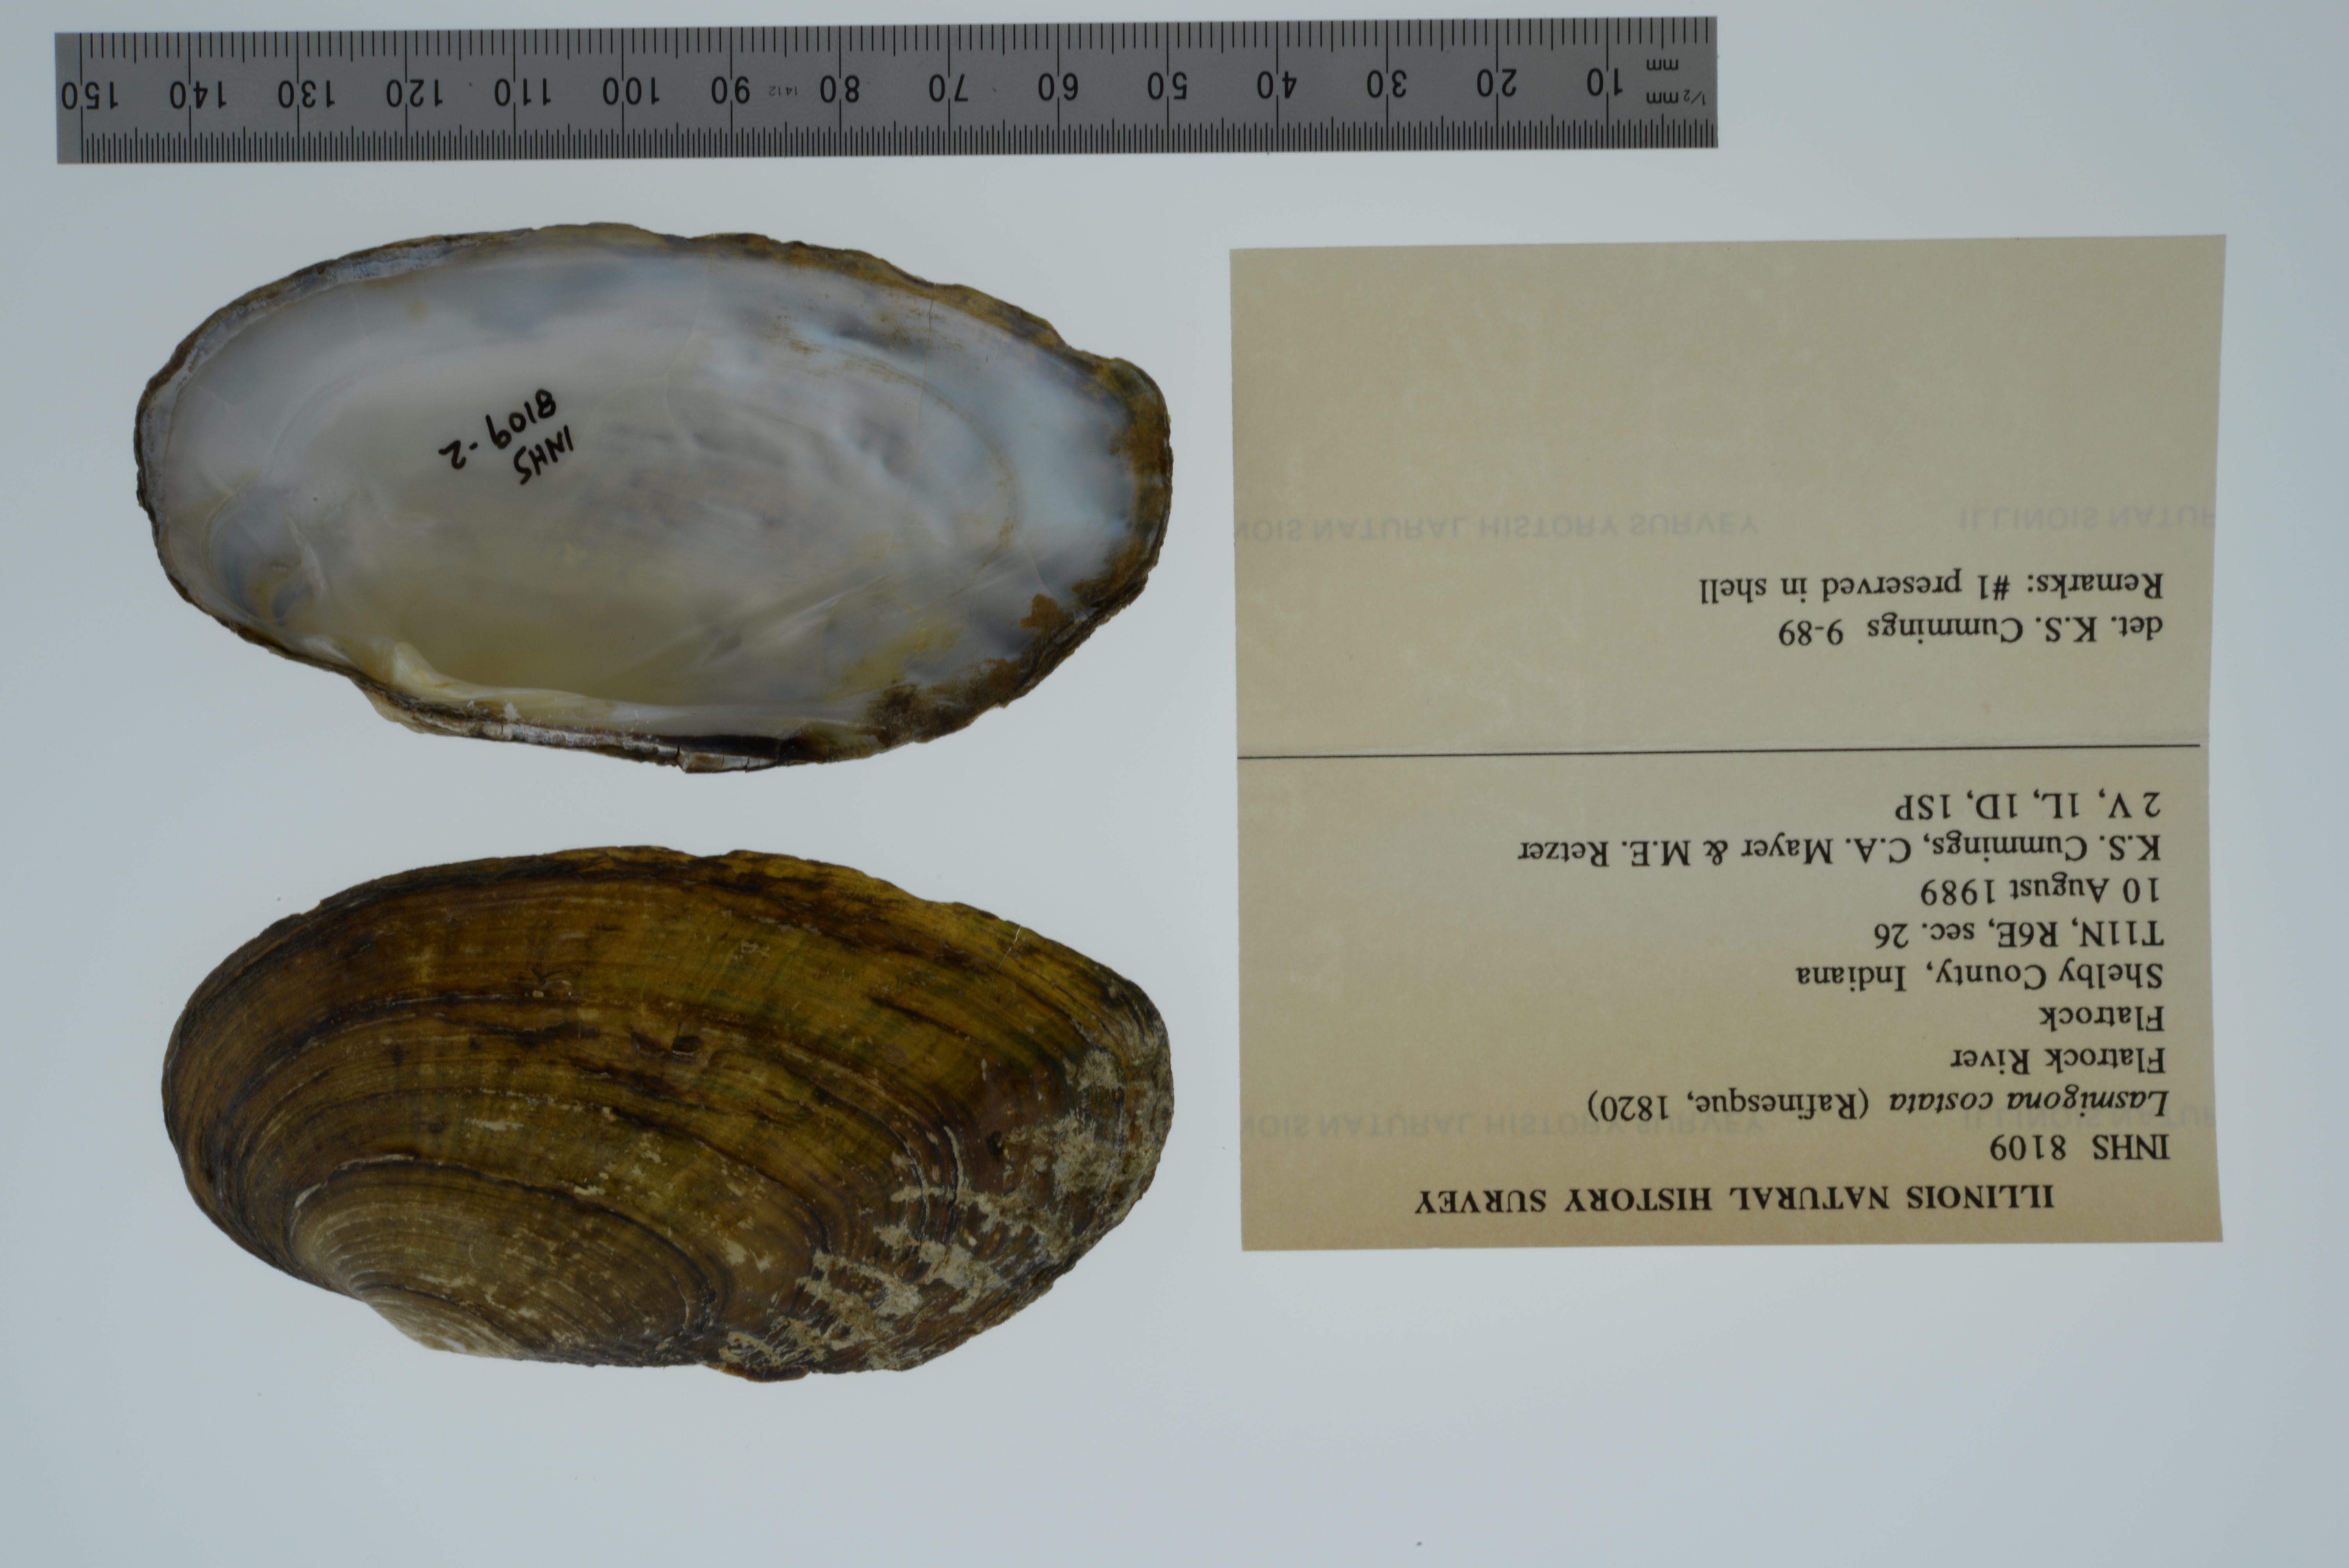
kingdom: Animalia
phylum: Mollusca
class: Bivalvia
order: Unionida
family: Unionidae
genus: Lasmigona
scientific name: Lasmigona costata
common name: Flutedshell
